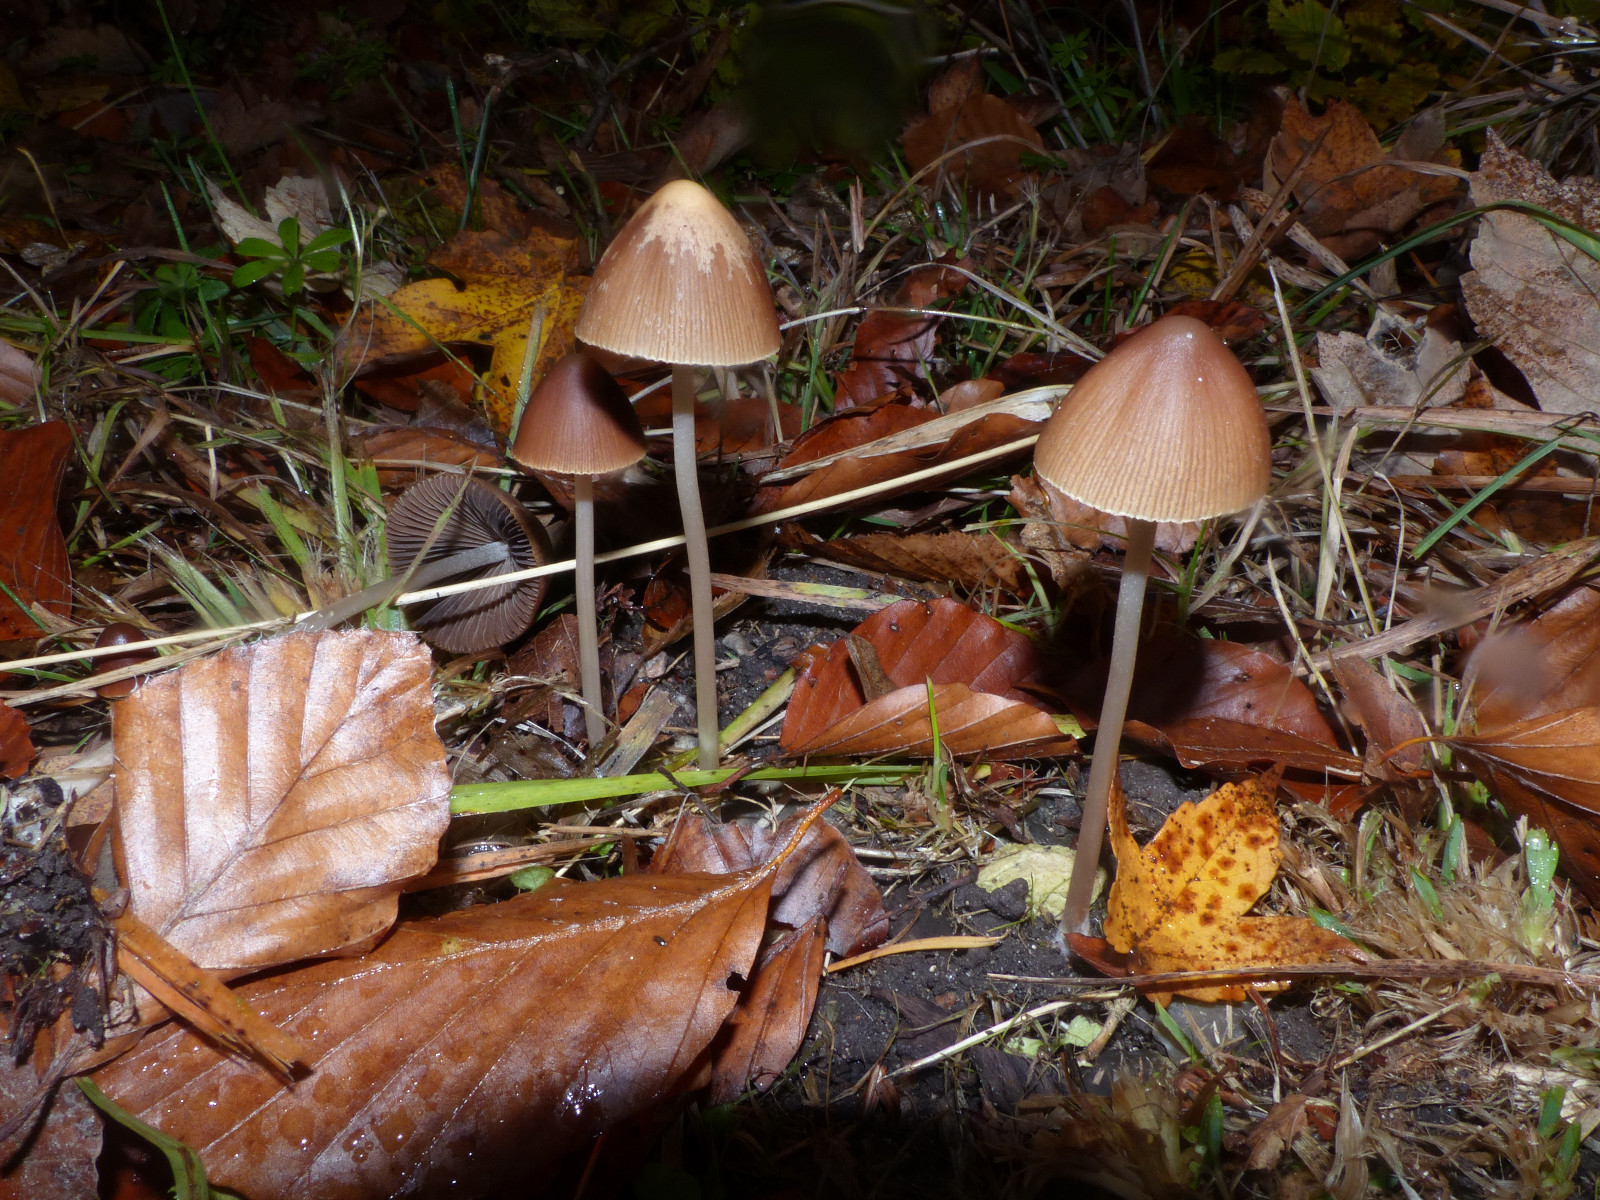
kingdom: Fungi
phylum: Basidiomycota
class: Agaricomycetes
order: Agaricales
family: Psathyrellaceae
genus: Parasola
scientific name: Parasola conopilea
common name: kegle-hjulhat
